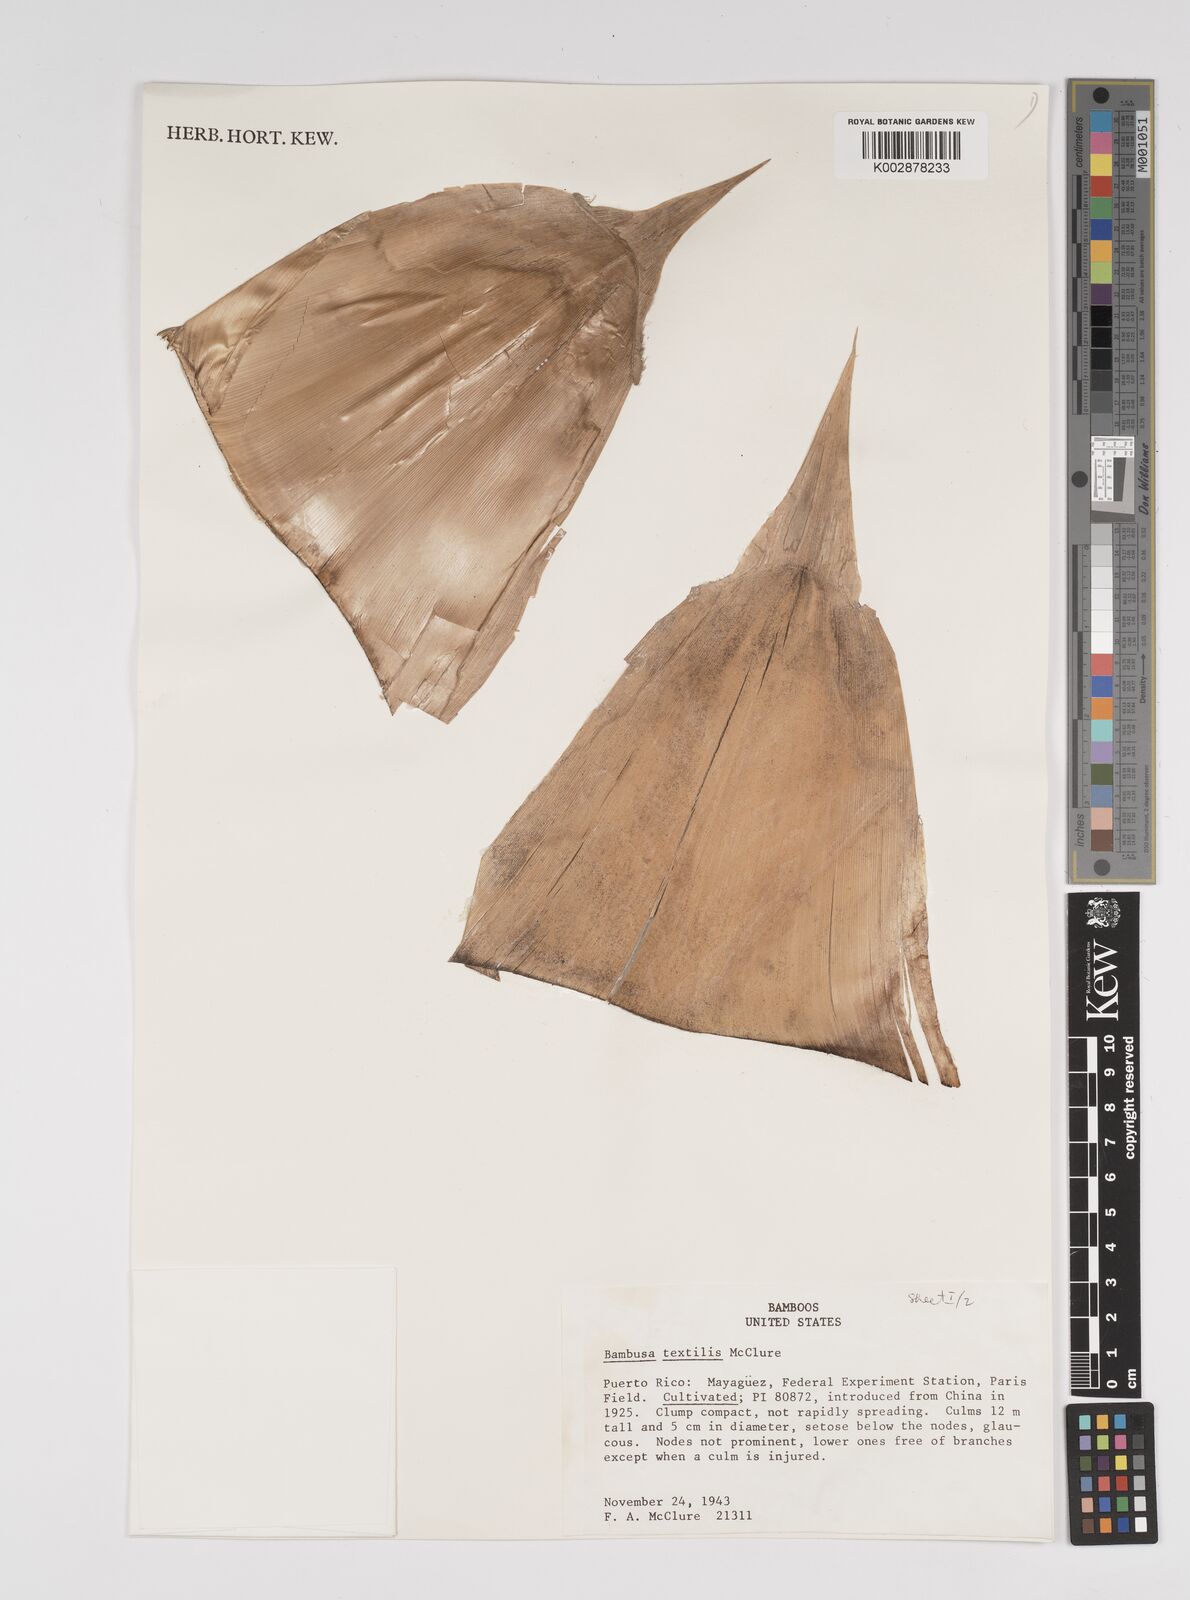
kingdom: Plantae
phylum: Tracheophyta
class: Liliopsida
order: Poales
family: Poaceae
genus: Bambusa
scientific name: Bambusa textilis
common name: Weaver's bamboo
